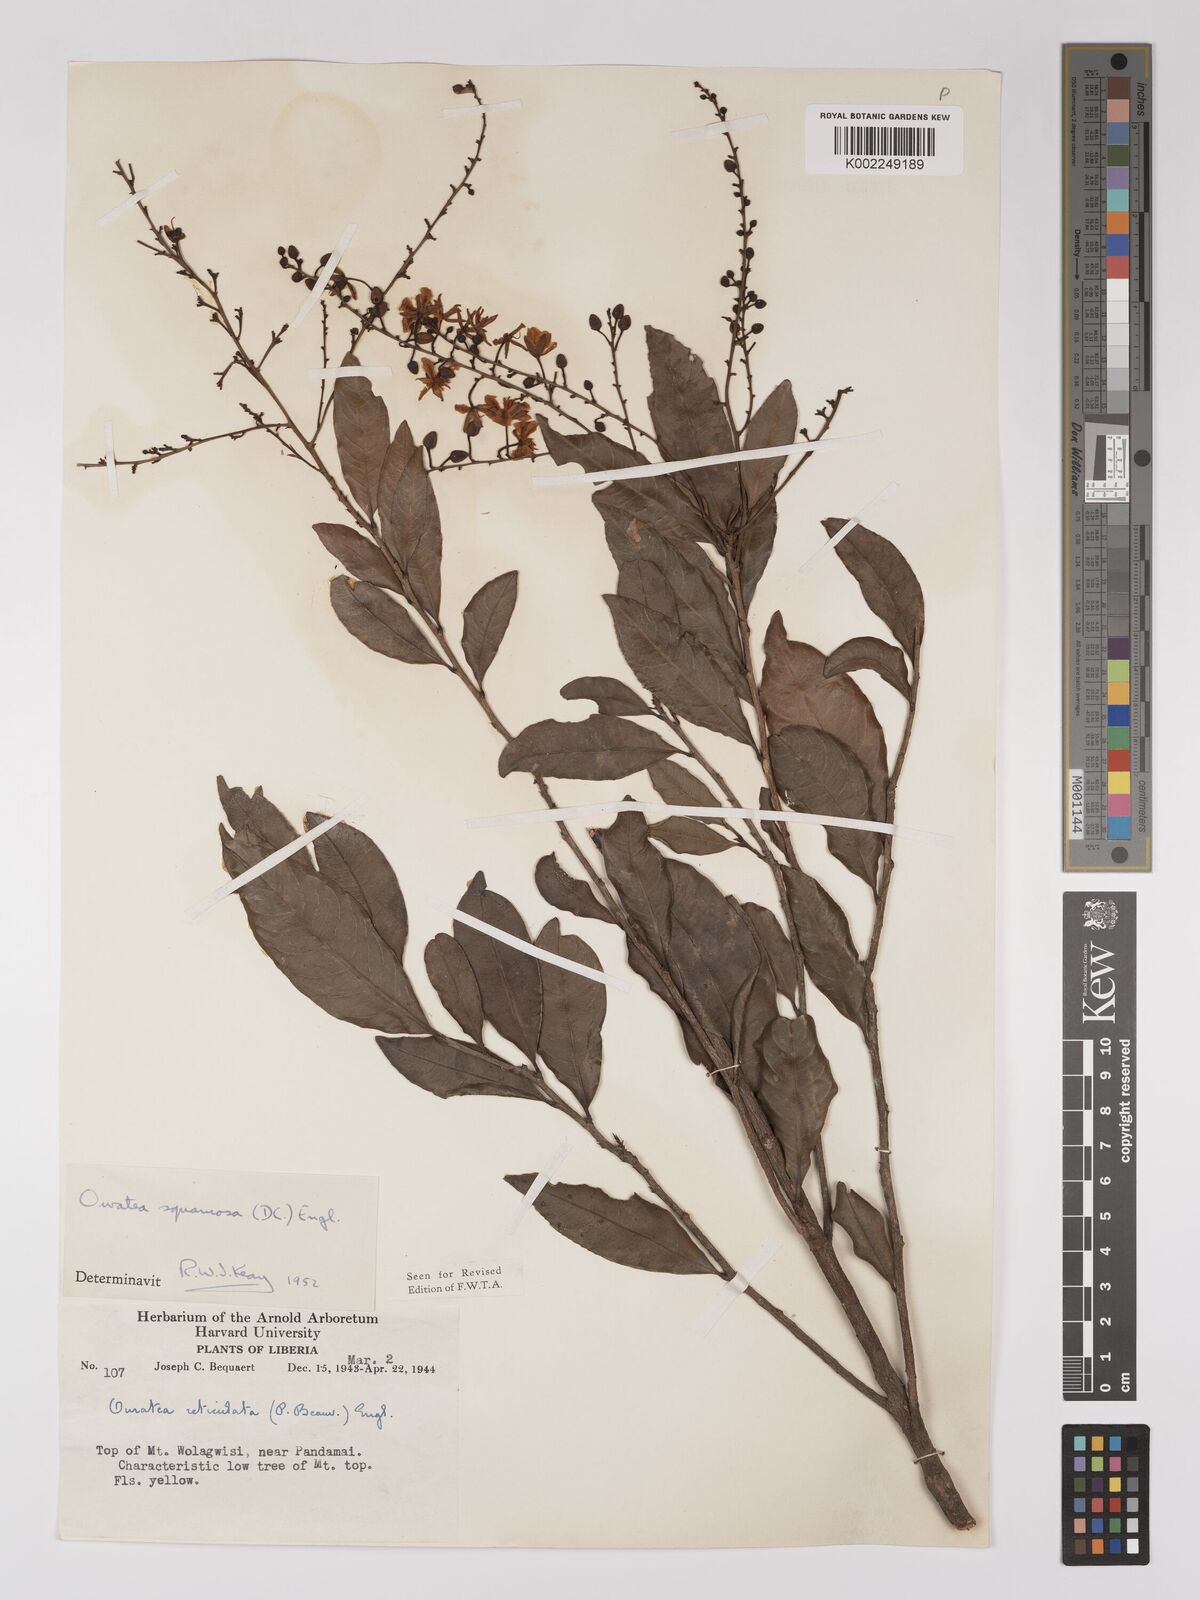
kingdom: Plantae
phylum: Tracheophyta
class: Magnoliopsida
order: Malpighiales
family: Ochnaceae
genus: Campylospermum
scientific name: Campylospermum squamosum
